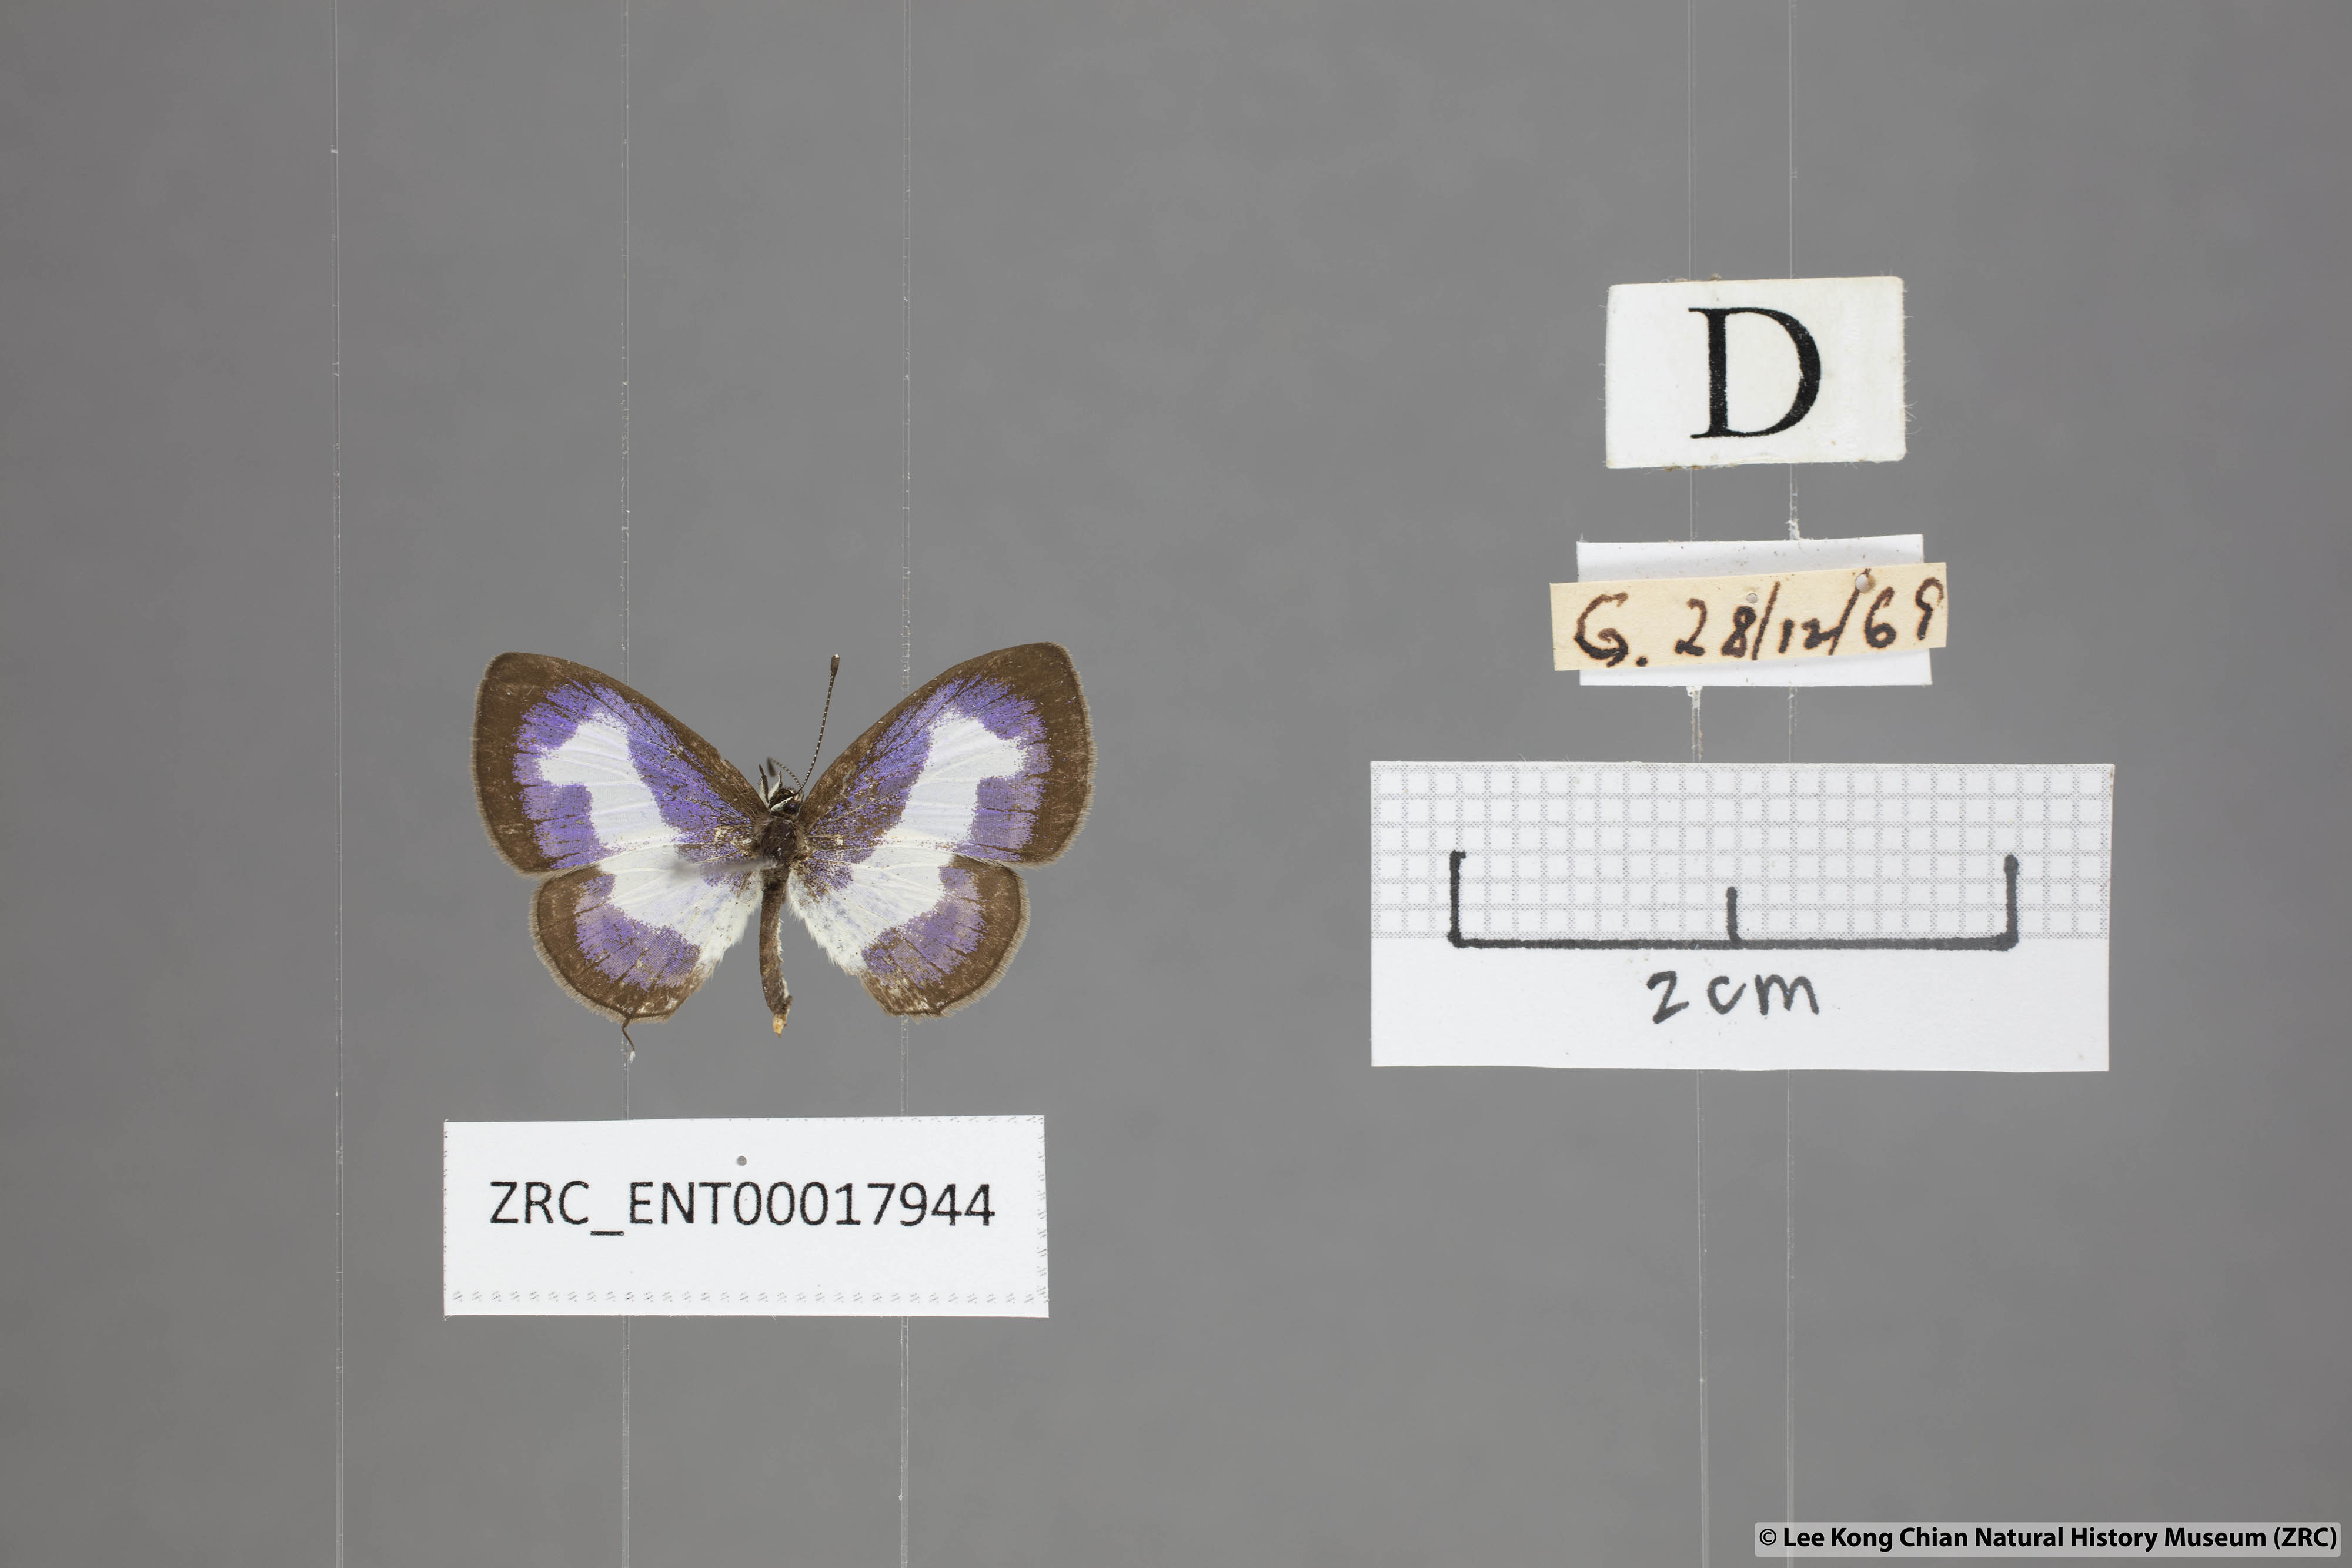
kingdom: Animalia
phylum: Arthropoda
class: Insecta
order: Lepidoptera
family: Lycaenidae
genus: Discolampa
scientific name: Discolampa ethion
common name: Banded blue pierrot
